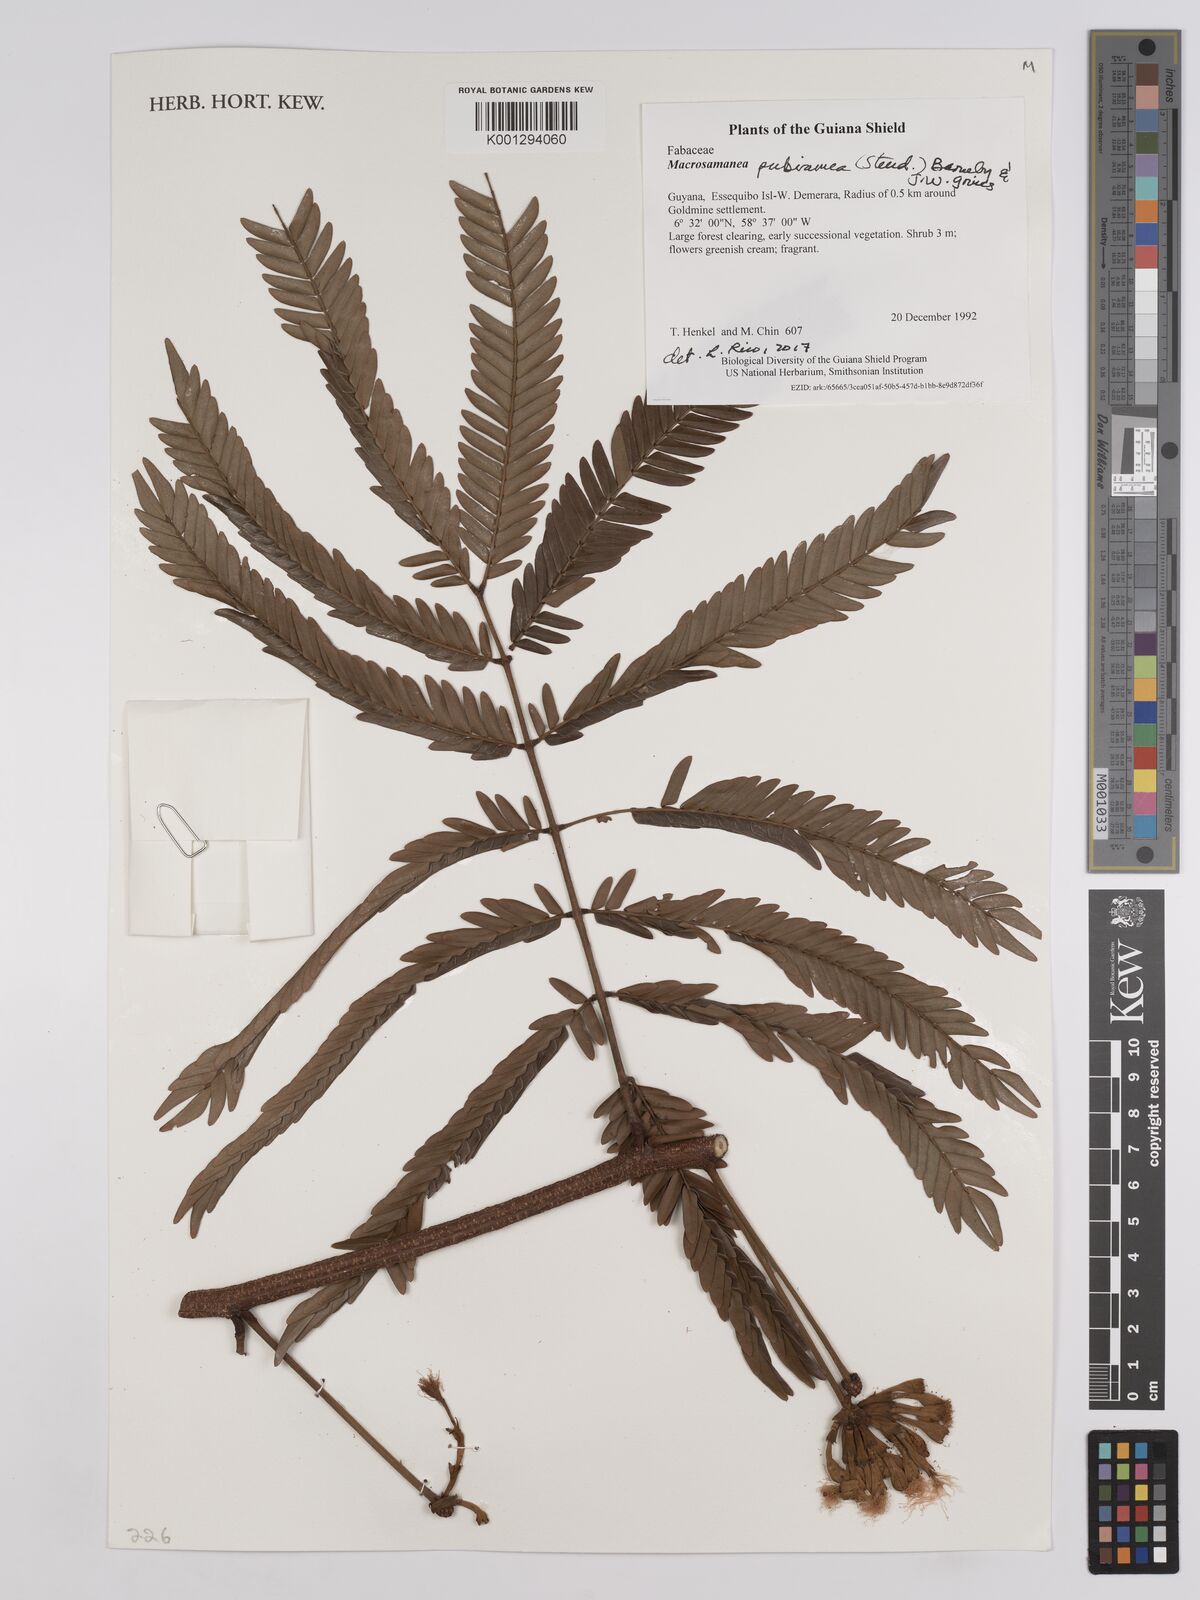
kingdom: Plantae
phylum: Tracheophyta
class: Magnoliopsida
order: Fabales
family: Fabaceae
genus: Macrosamanea
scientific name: Macrosamanea pubiramea
